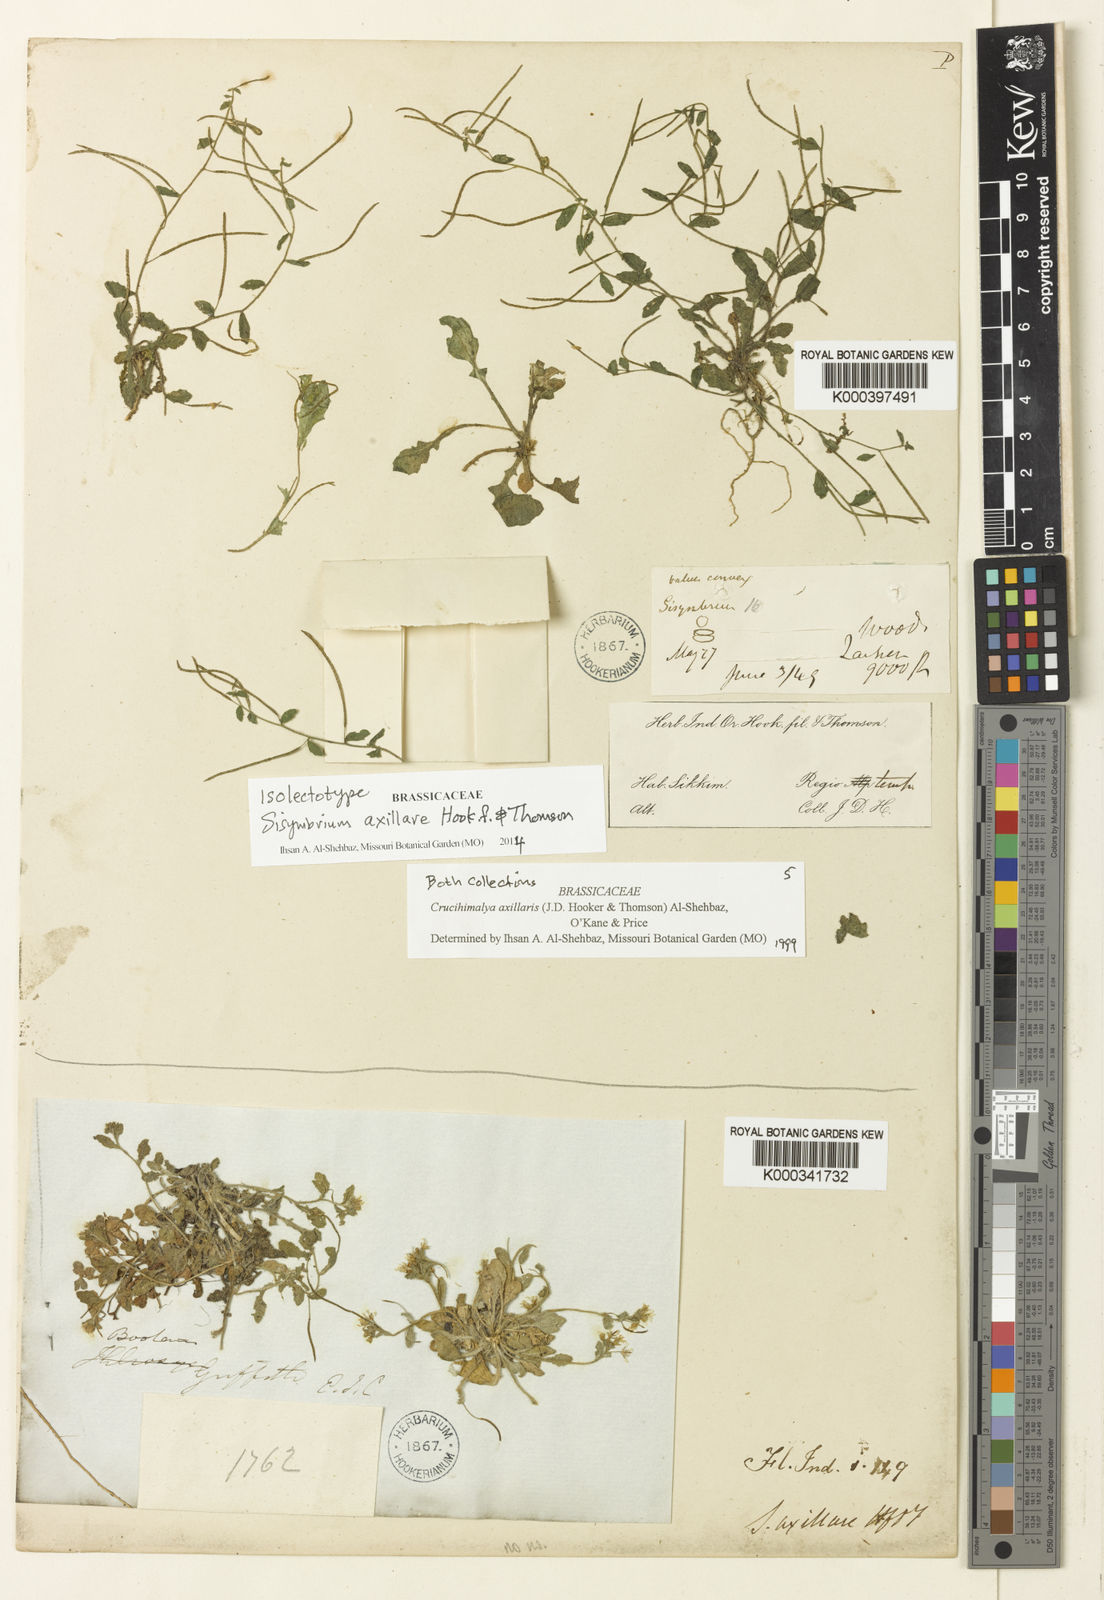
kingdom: Plantae
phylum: Tracheophyta
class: Magnoliopsida
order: Brassicales
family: Brassicaceae
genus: Crucihimalaya
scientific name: Crucihimalaya axillaris
